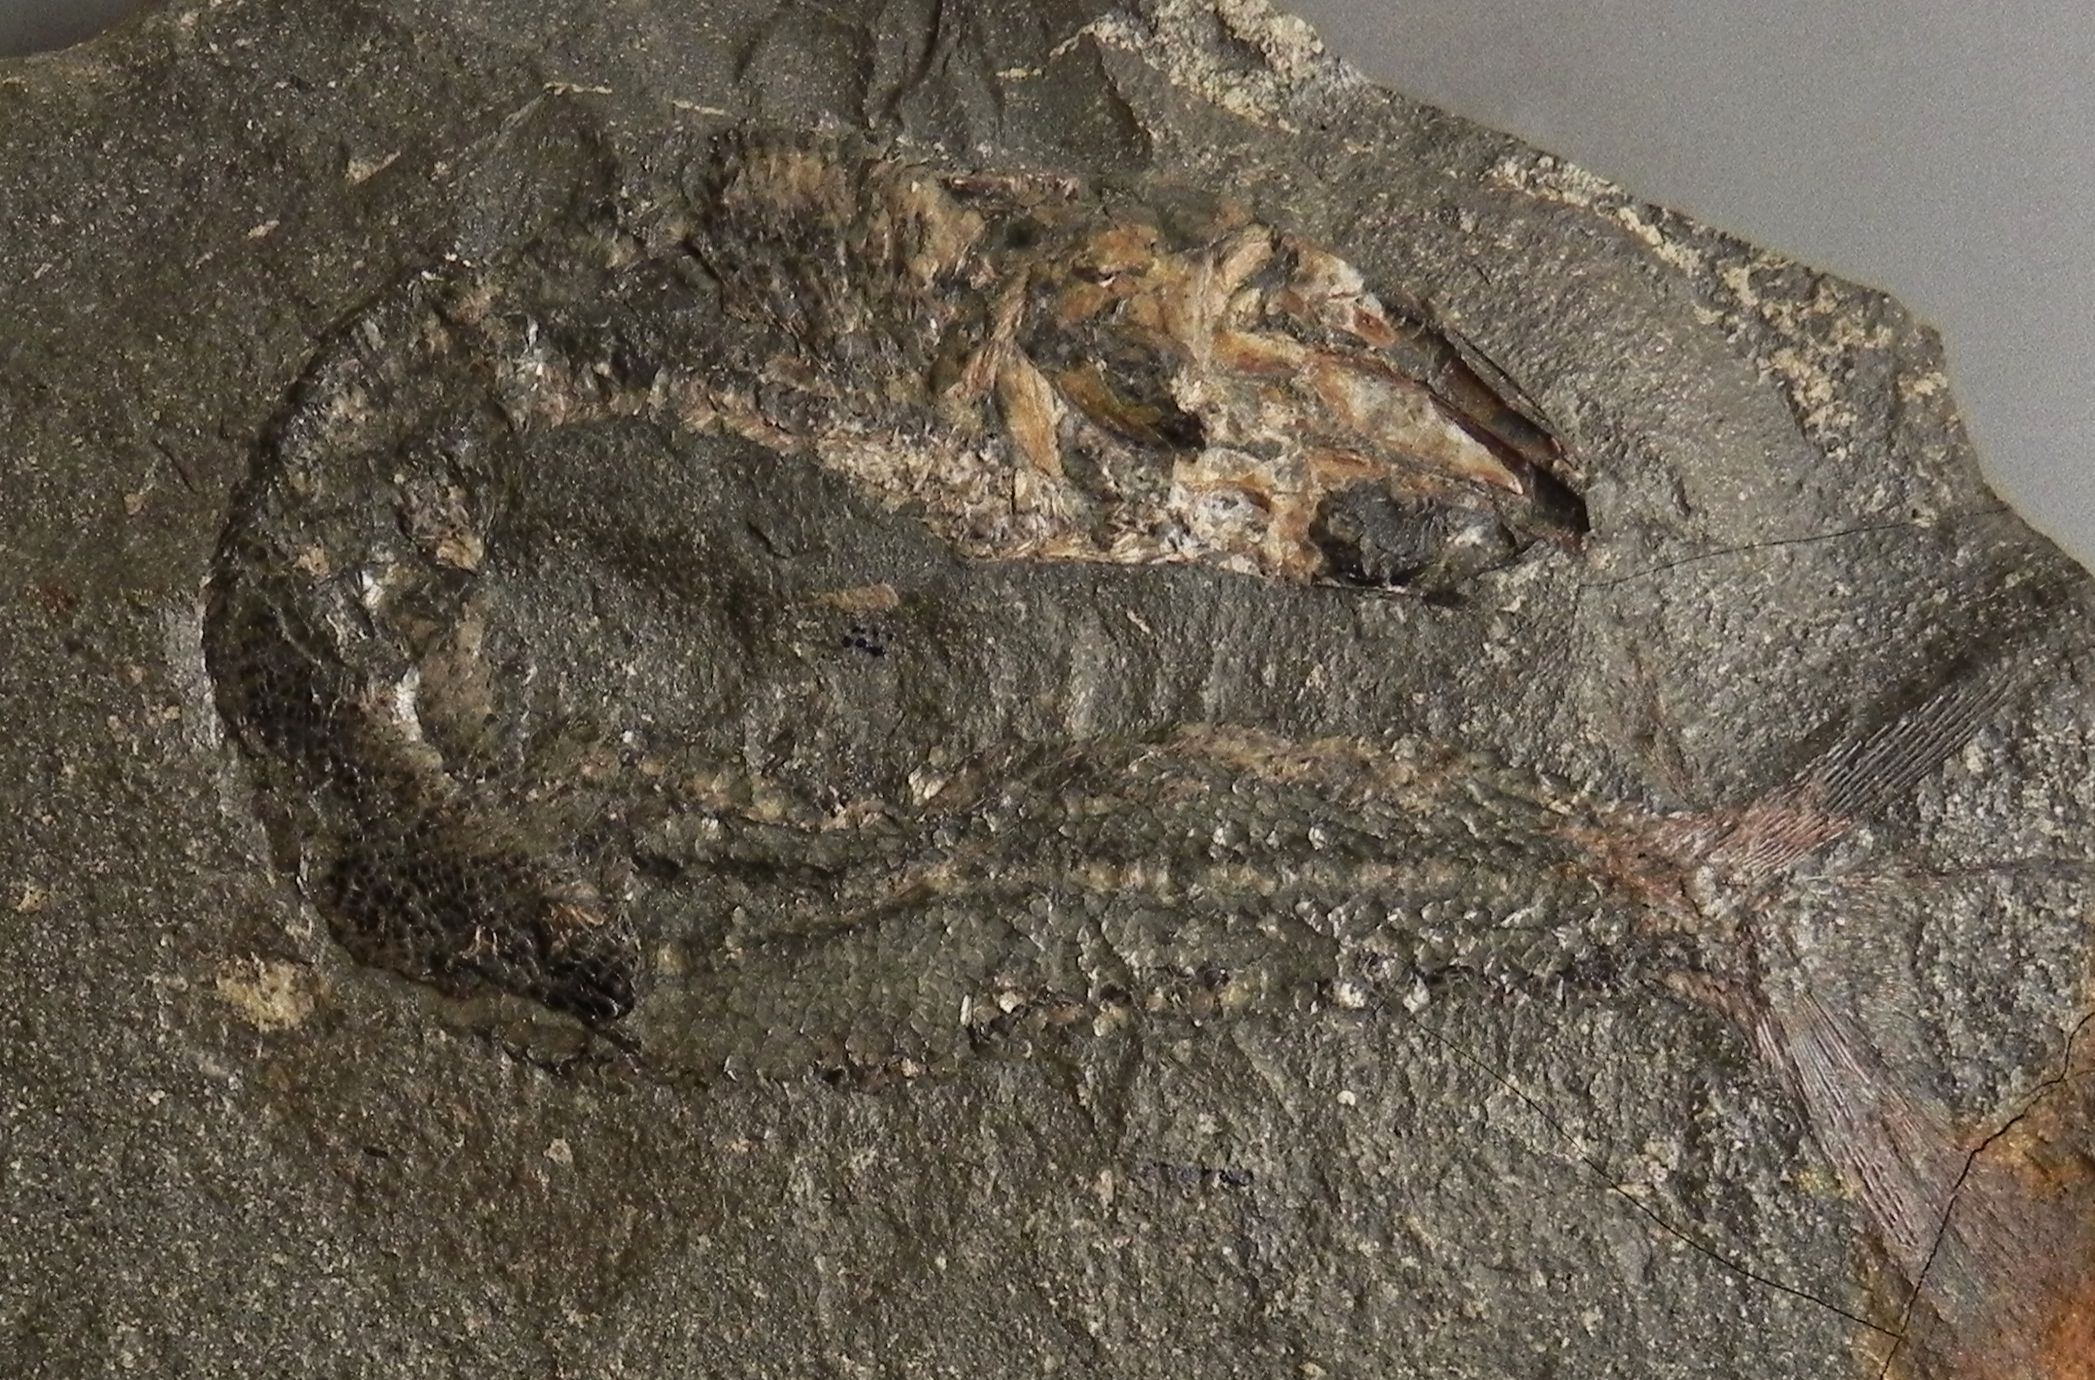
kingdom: Animalia
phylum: Chordata
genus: Haasichthys
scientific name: Haasichthys michelsi
